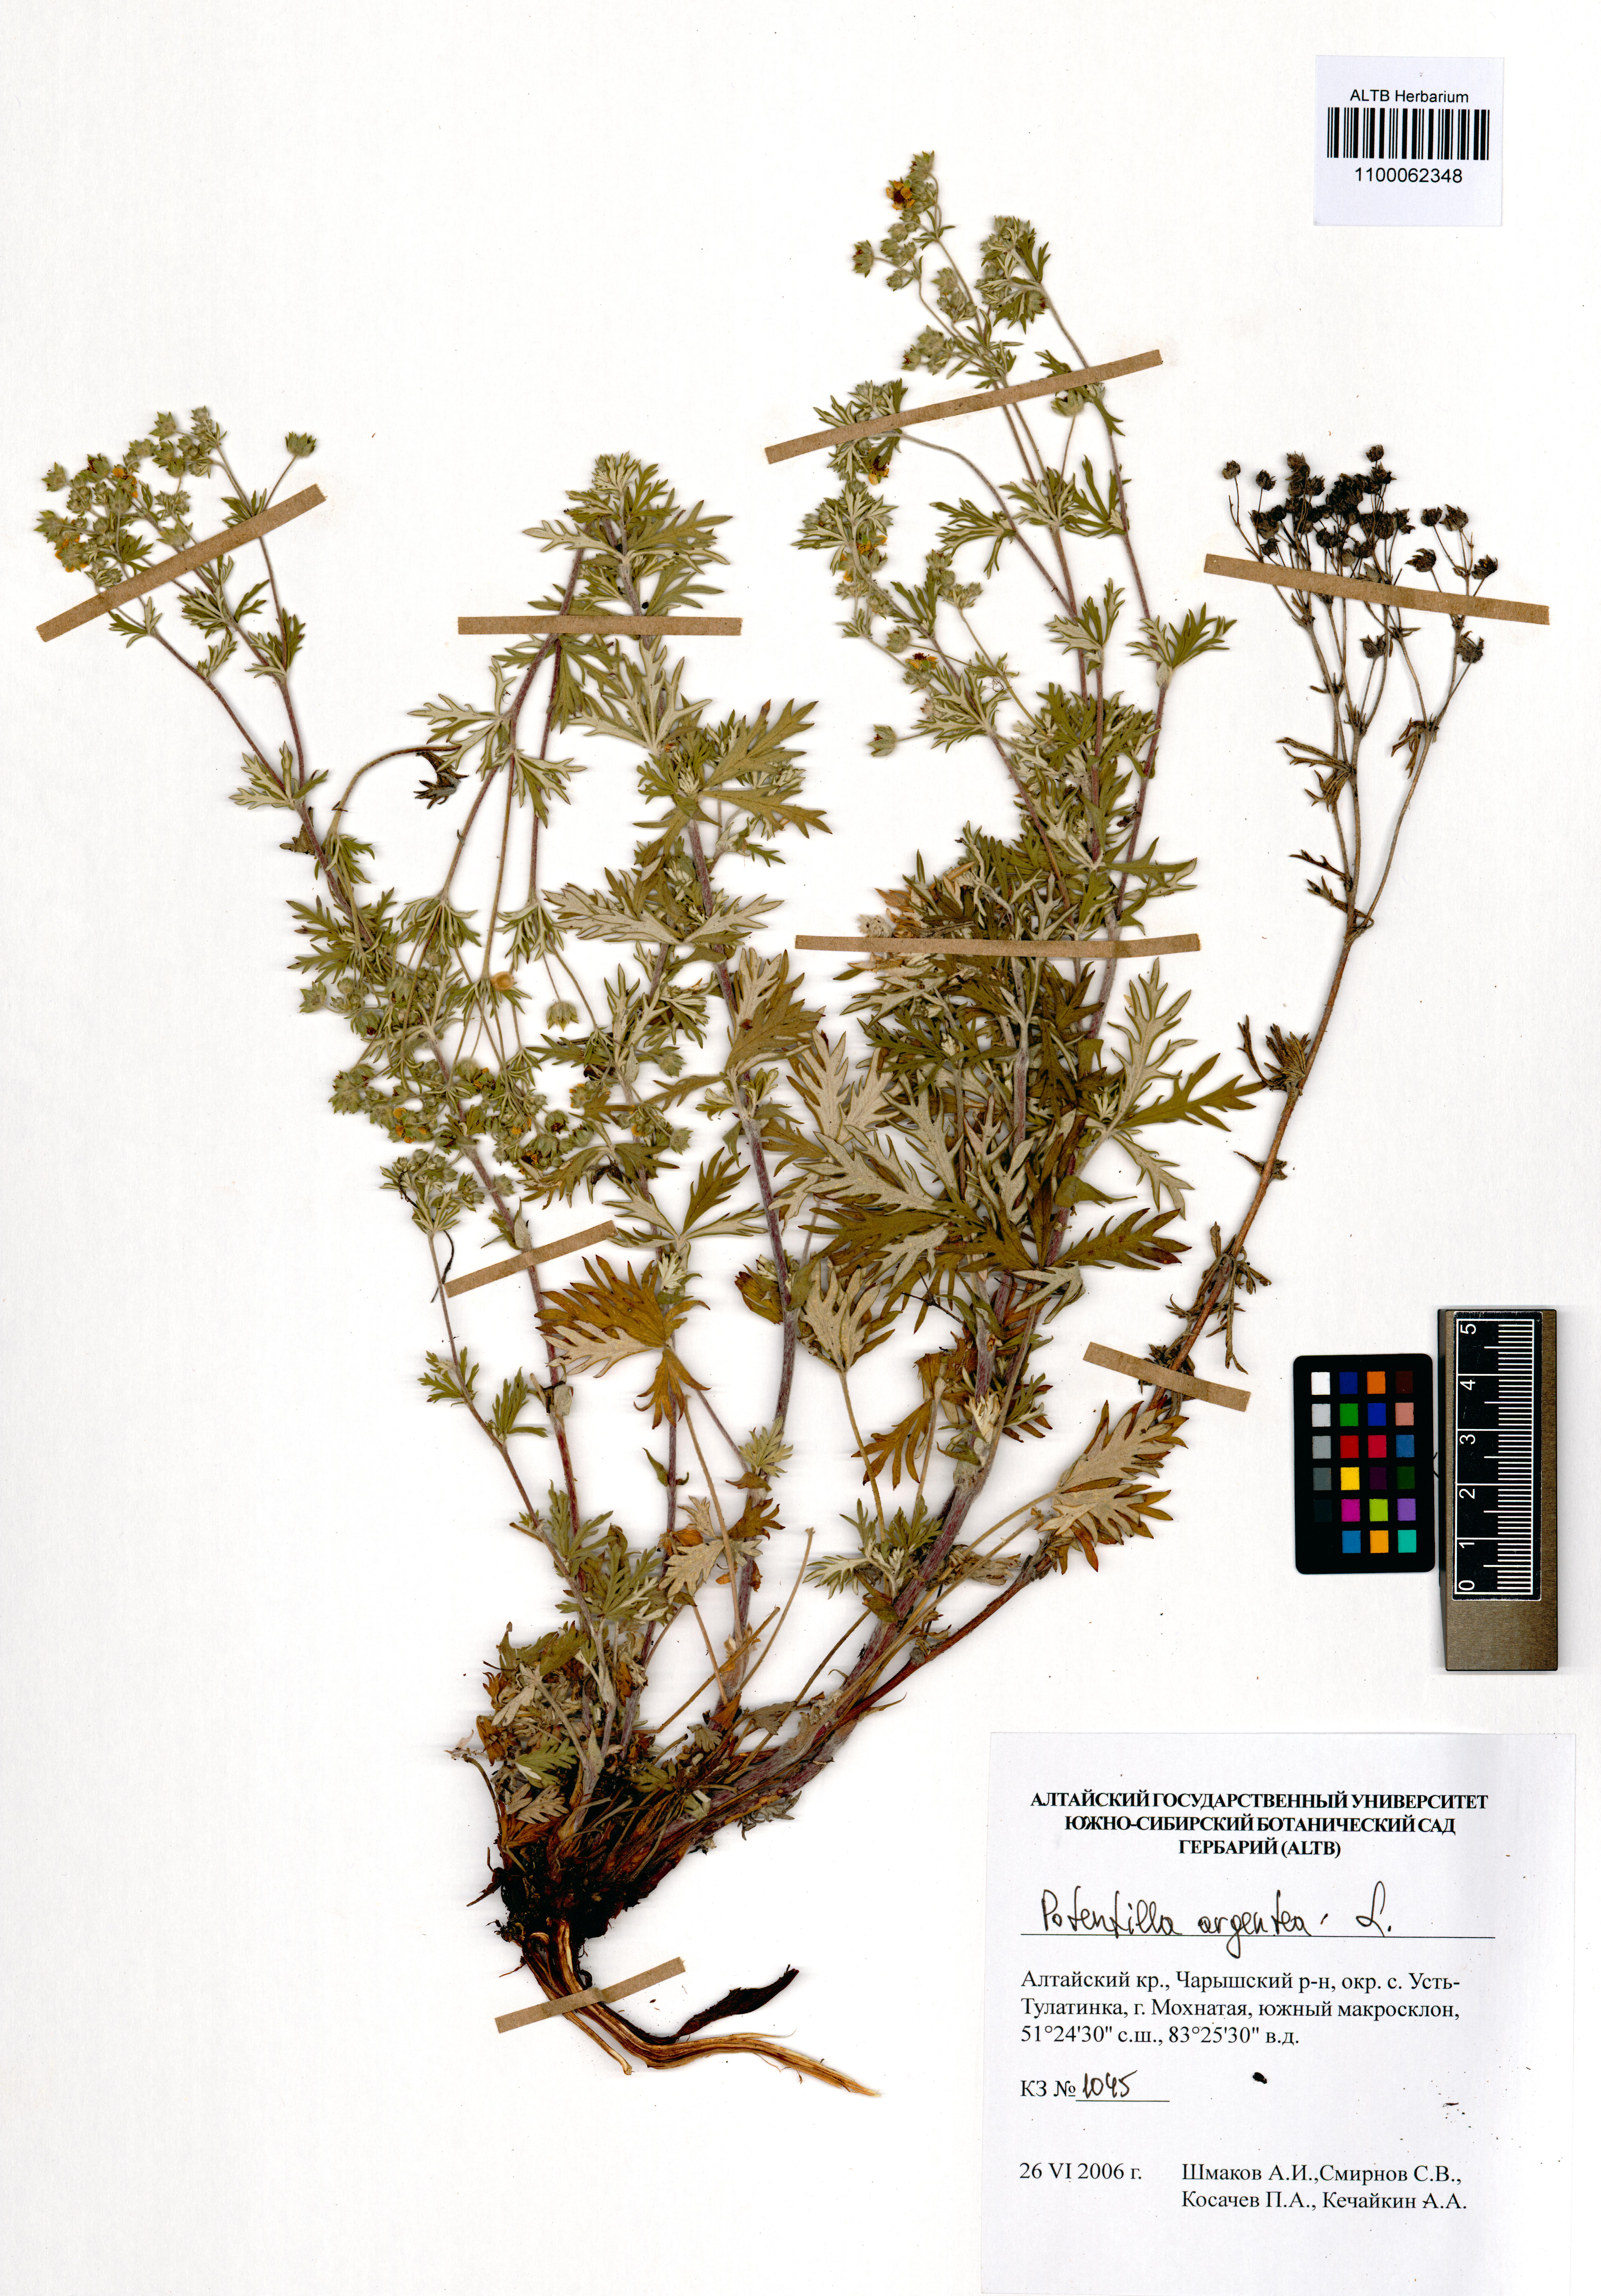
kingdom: Plantae
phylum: Tracheophyta
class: Magnoliopsida
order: Rosales
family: Rosaceae
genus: Potentilla
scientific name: Potentilla argentea
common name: Hoary cinquefoil
